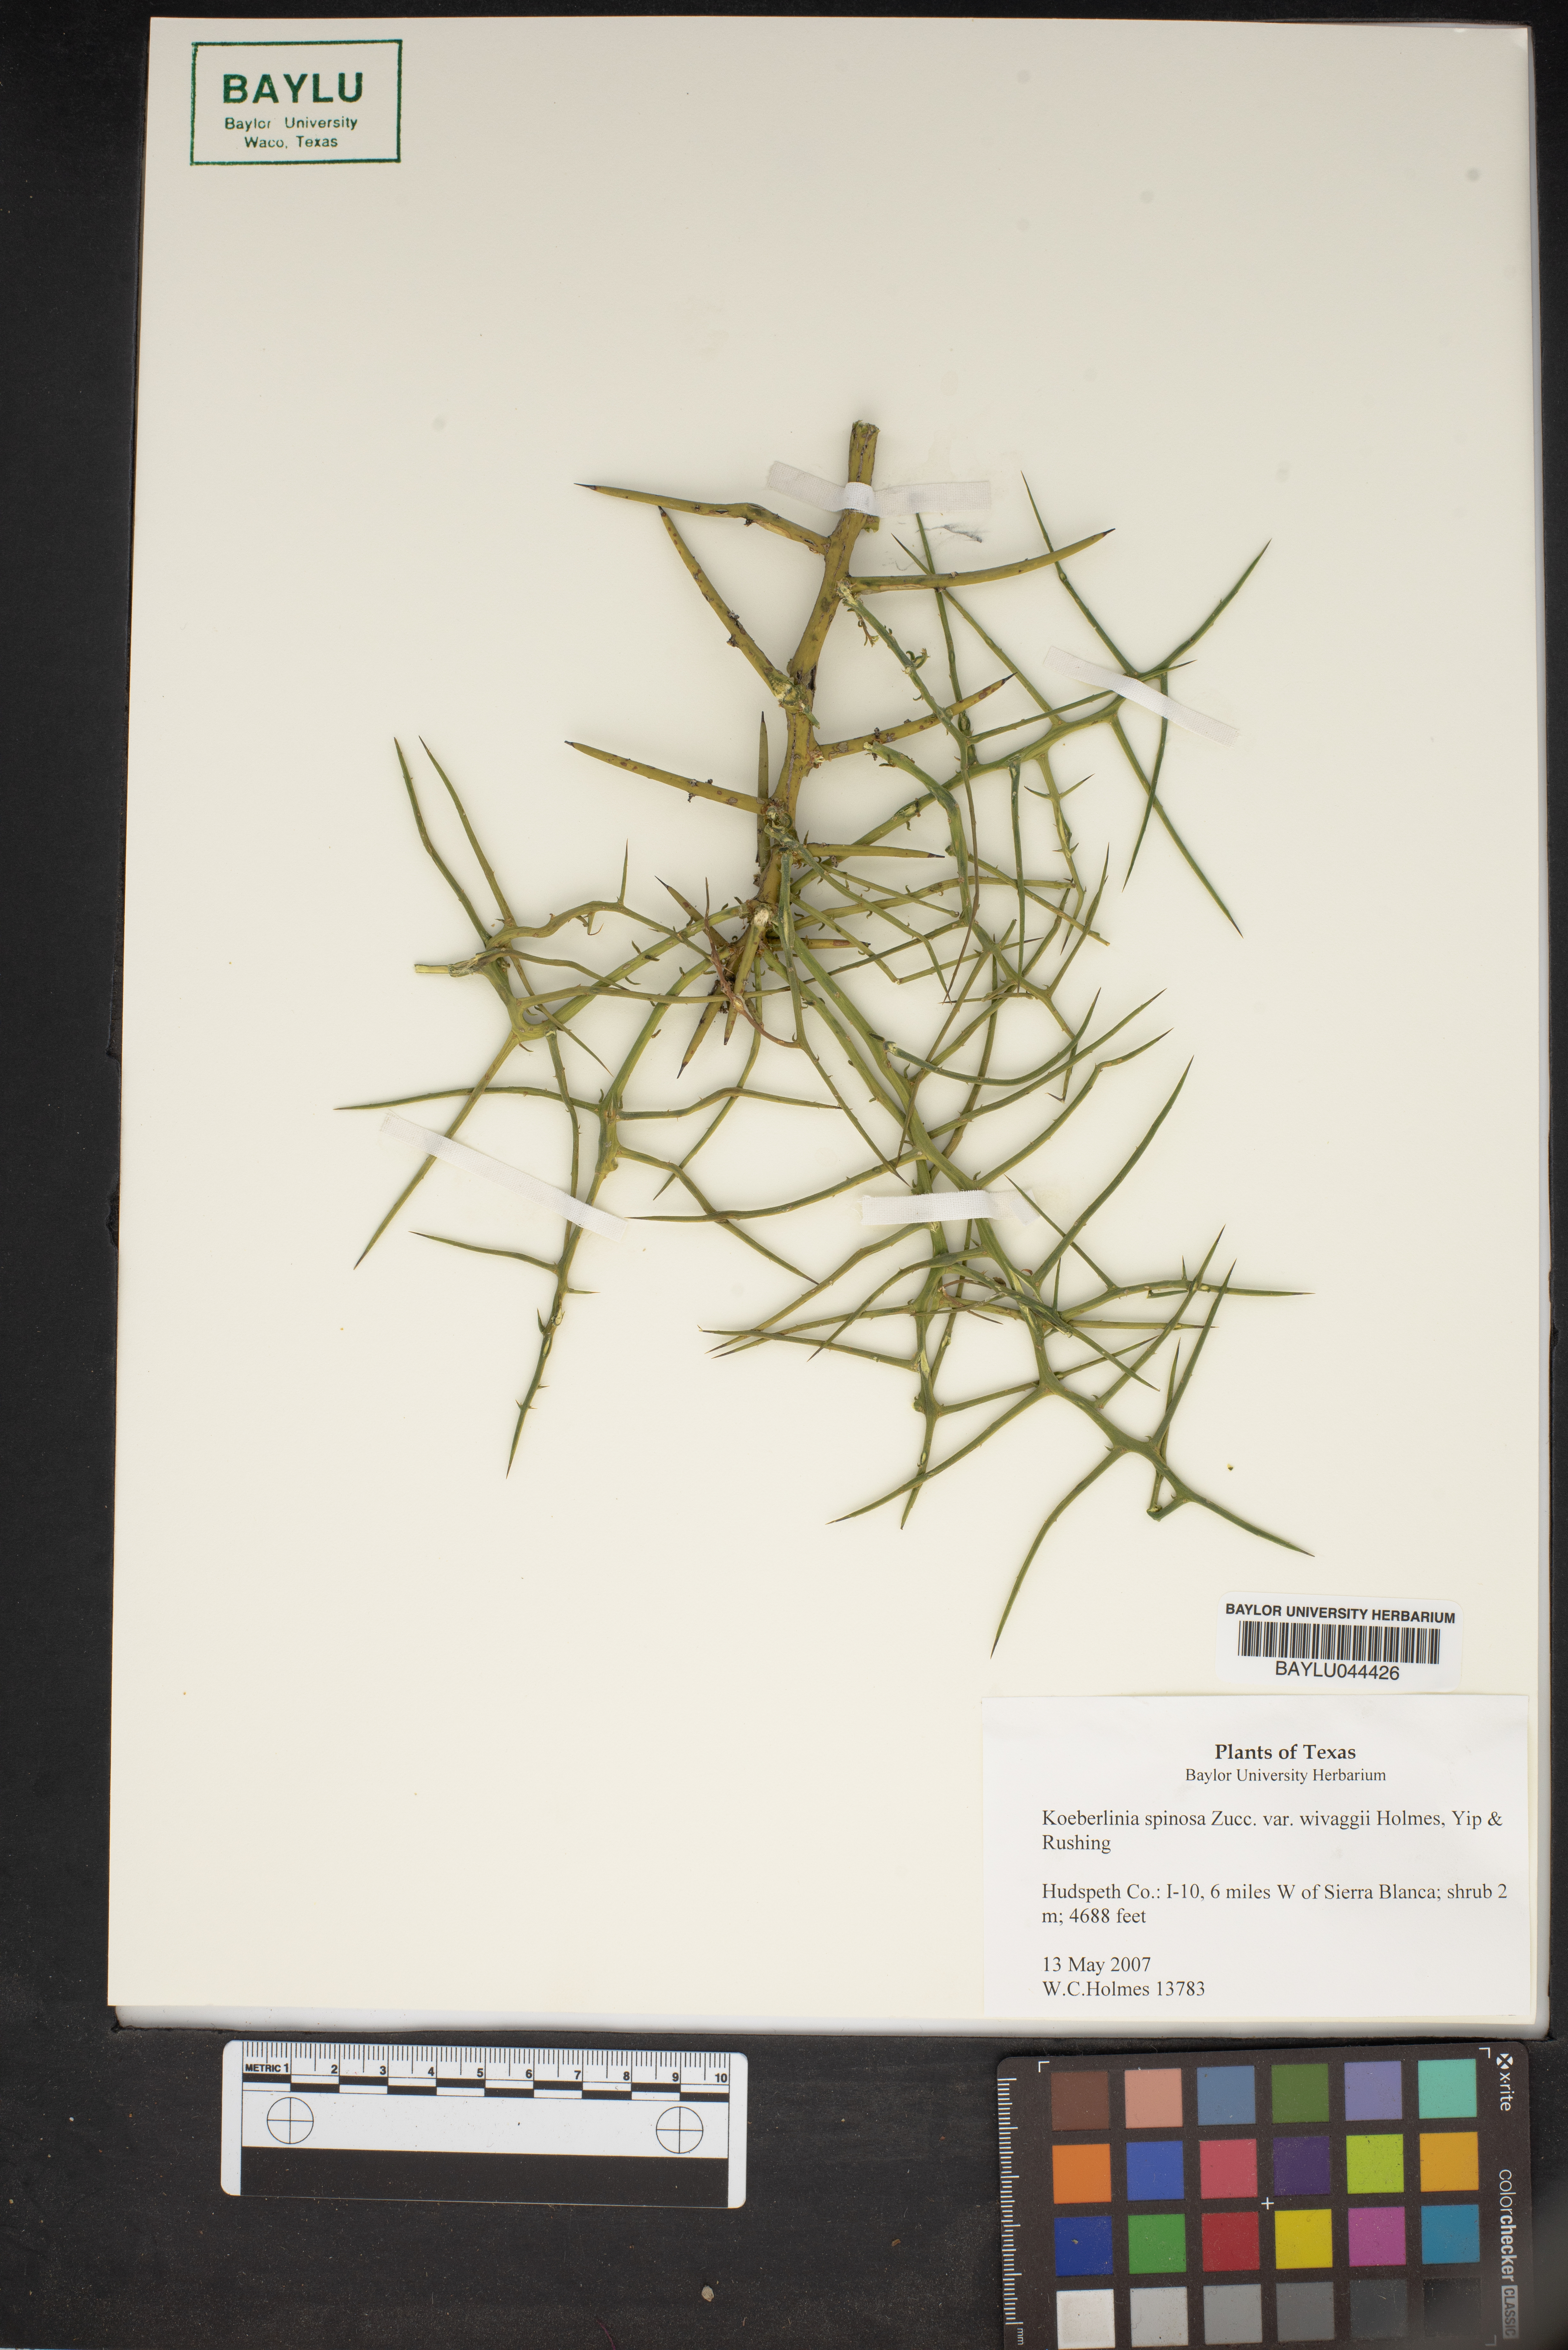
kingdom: Plantae
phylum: Tracheophyta
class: Magnoliopsida
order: Brassicales
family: Koeberliniaceae
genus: Koeberlinia
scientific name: Koeberlinia spinosa
